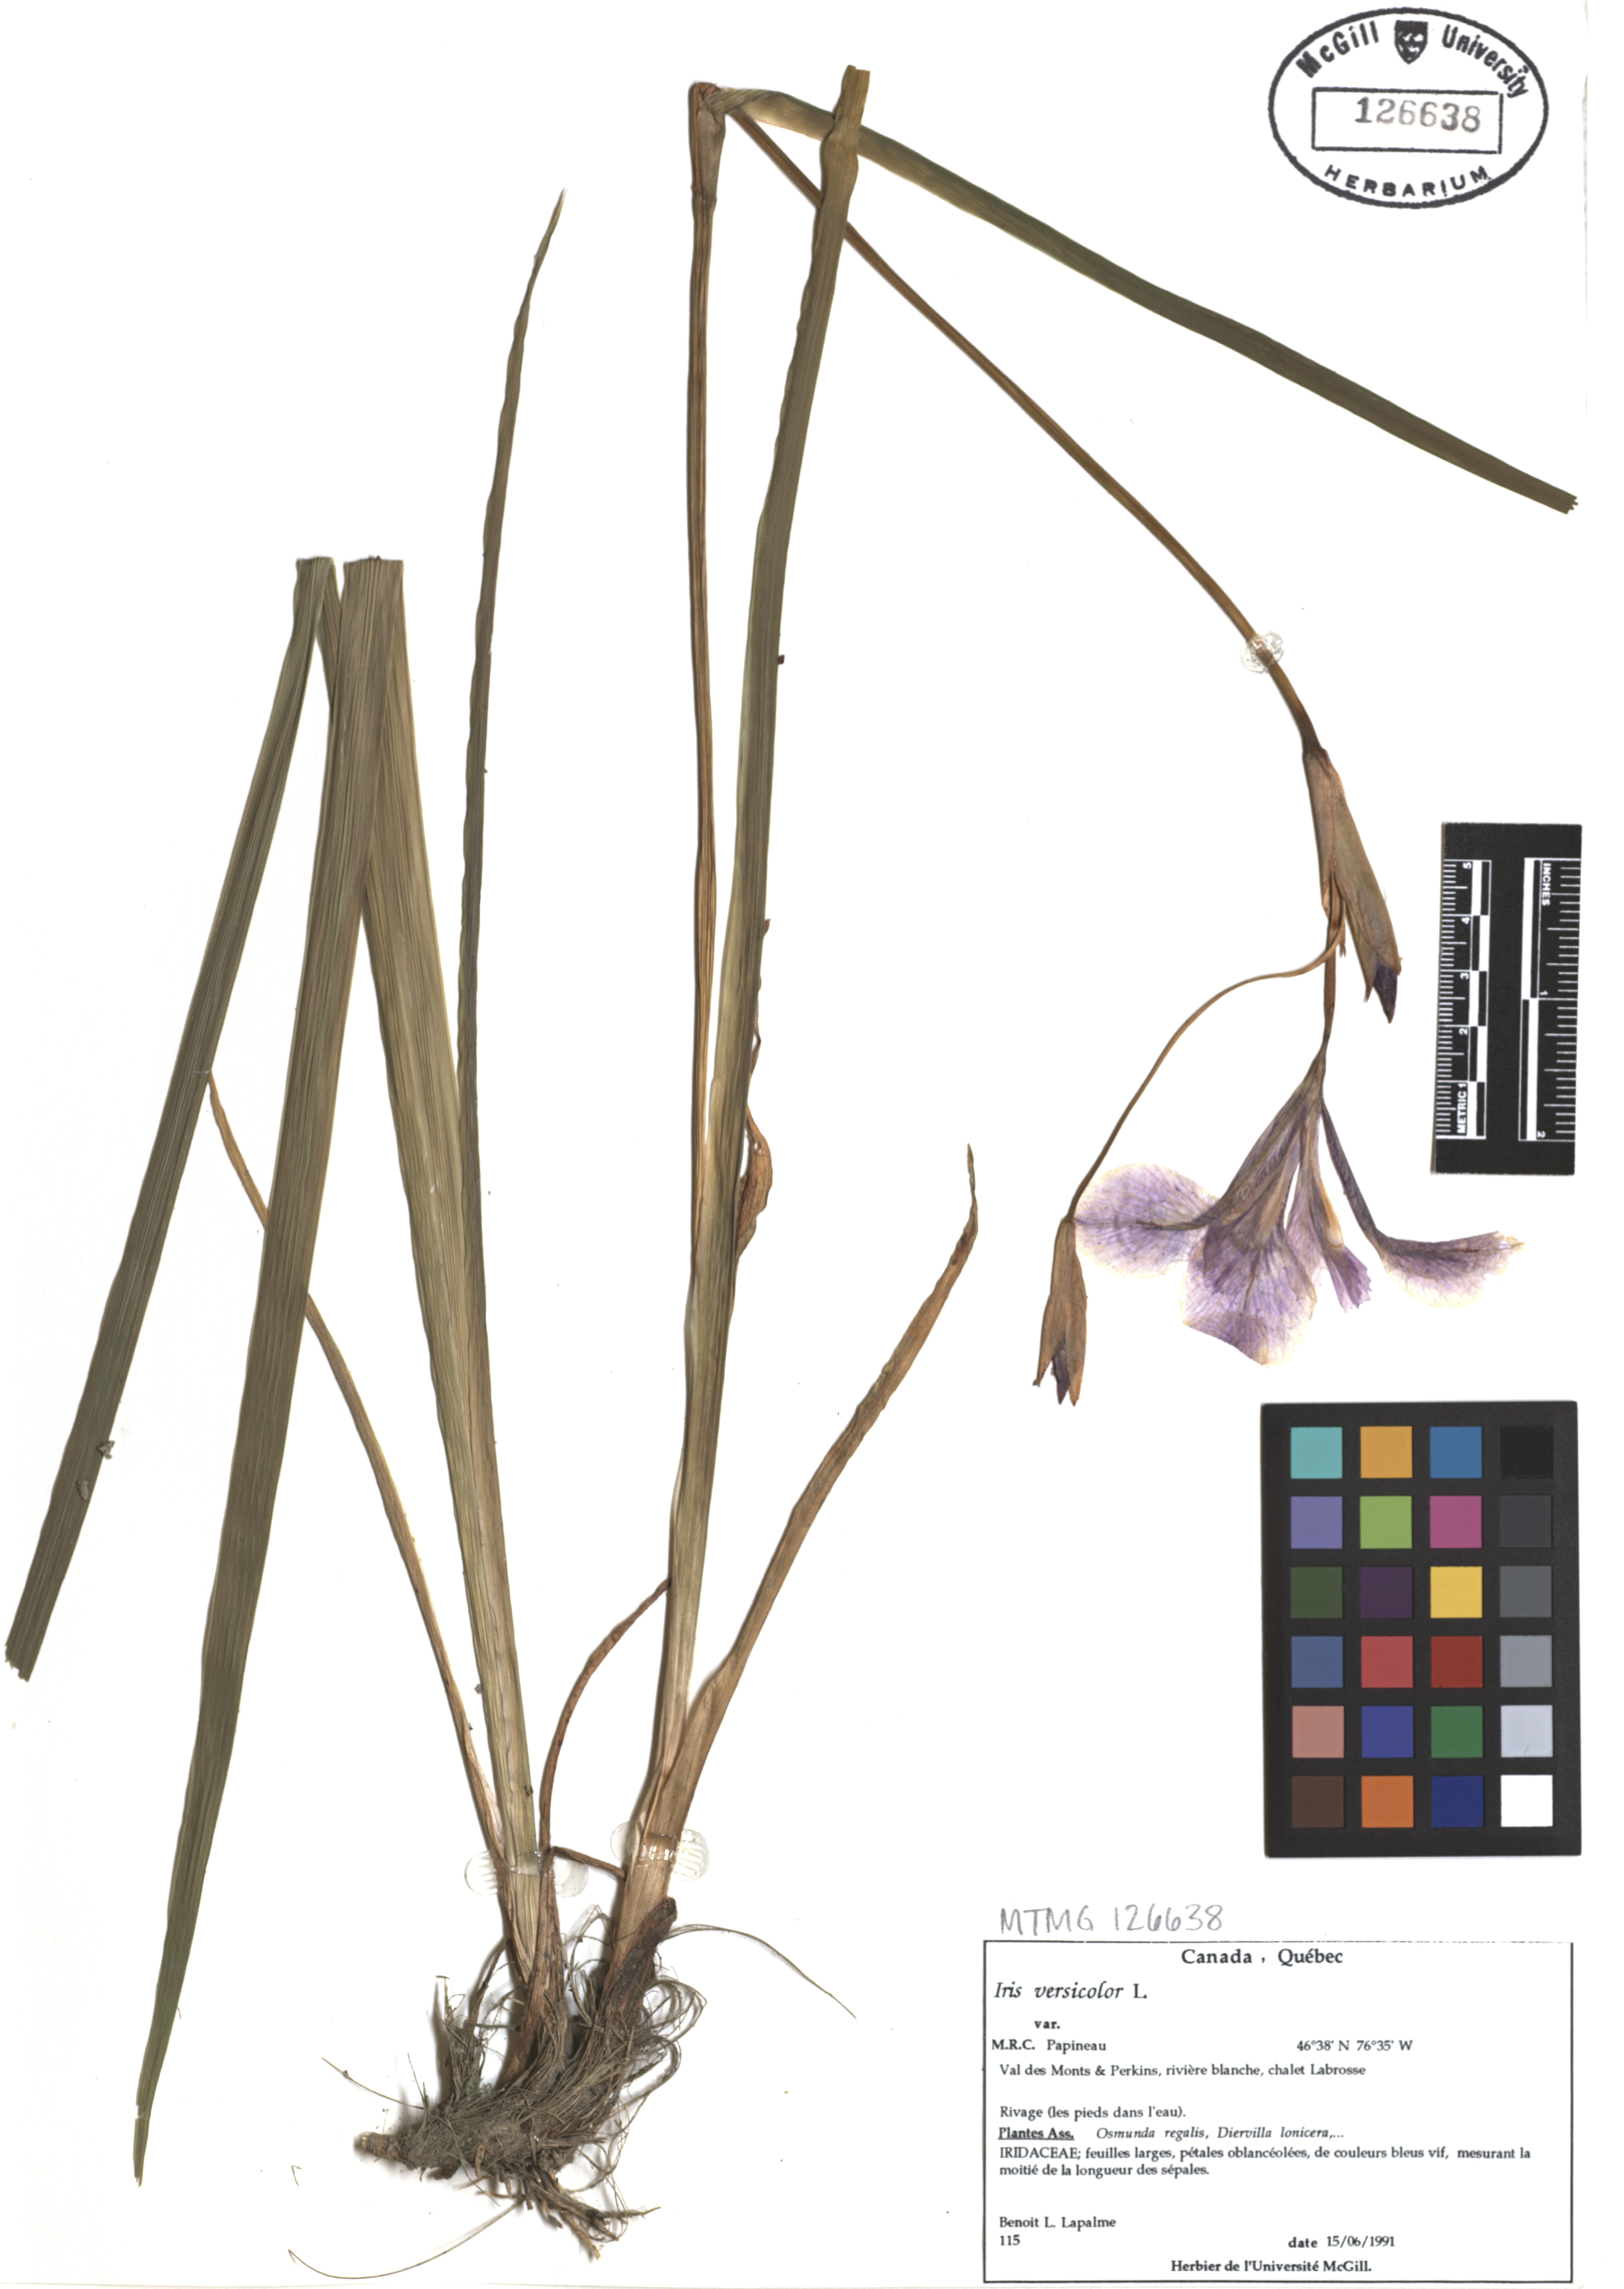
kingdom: Plantae
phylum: Tracheophyta
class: Liliopsida
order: Asparagales
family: Iridaceae
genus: Iris
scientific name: Iris versicolor
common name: Purple iris
